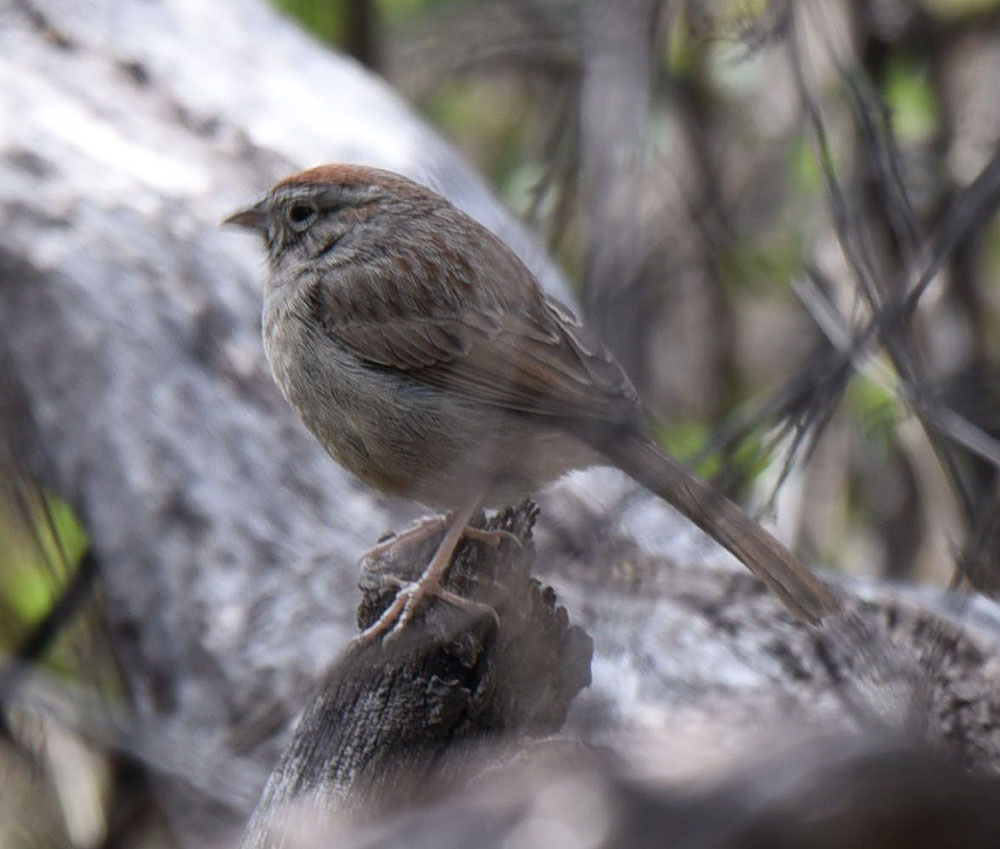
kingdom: Animalia
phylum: Chordata
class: Aves
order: Passeriformes
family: Passerellidae
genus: Aimophila
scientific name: Aimophila ruficeps
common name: Rufous-crowned sparrow
